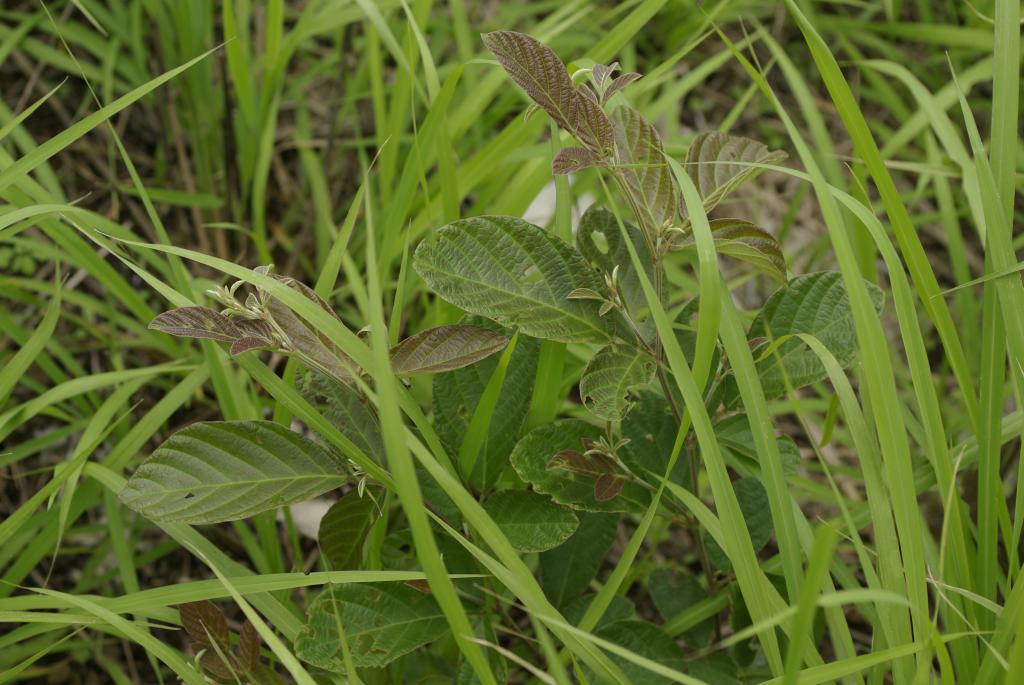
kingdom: Plantae
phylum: Tracheophyta
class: Magnoliopsida
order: Fabales
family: Fabaceae
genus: Phyllodium
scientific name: Phyllodium pulchellum
